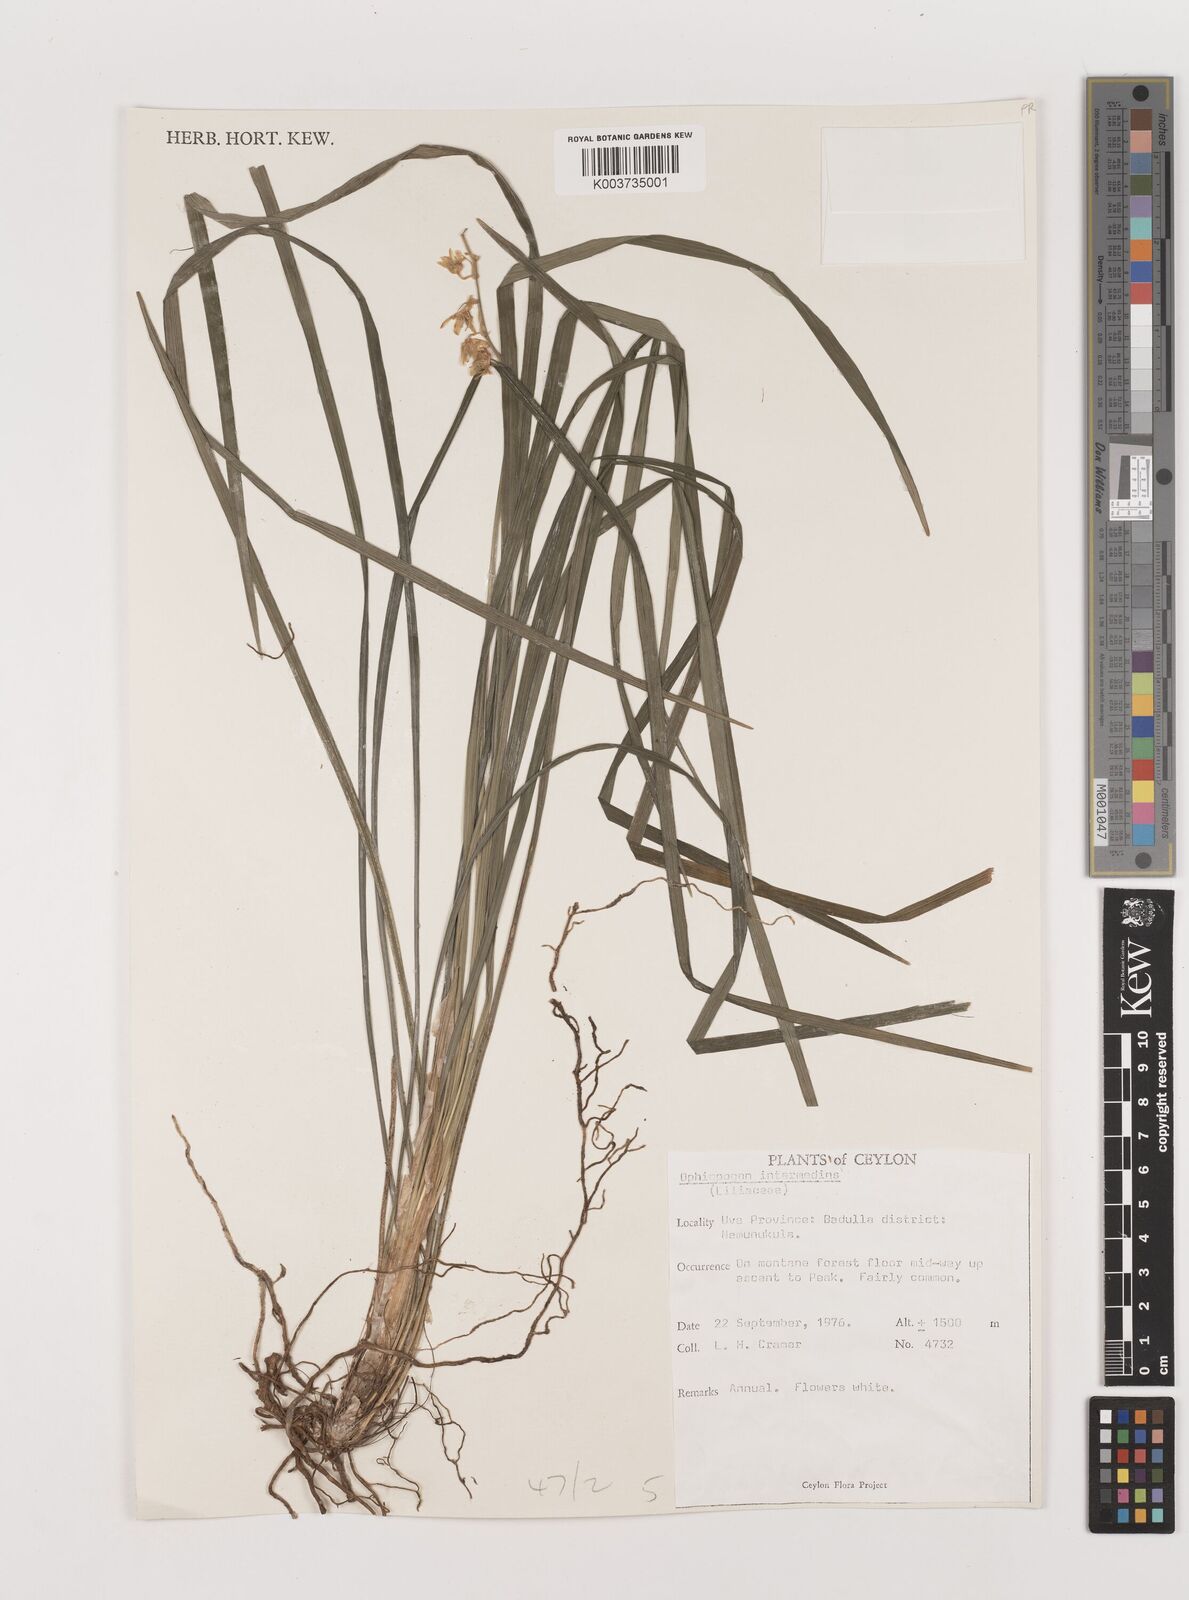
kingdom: Plantae
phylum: Tracheophyta
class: Liliopsida
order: Asparagales
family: Asparagaceae
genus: Ophiopogon
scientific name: Ophiopogon intermedius
